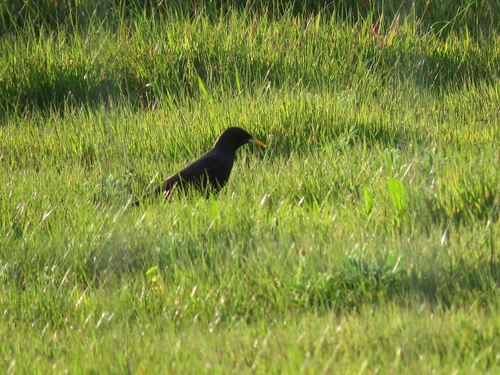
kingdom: Animalia
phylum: Chordata
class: Aves
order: Passeriformes
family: Sturnidae
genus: Sturnus
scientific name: Sturnus unicolor
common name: Spotless starling
